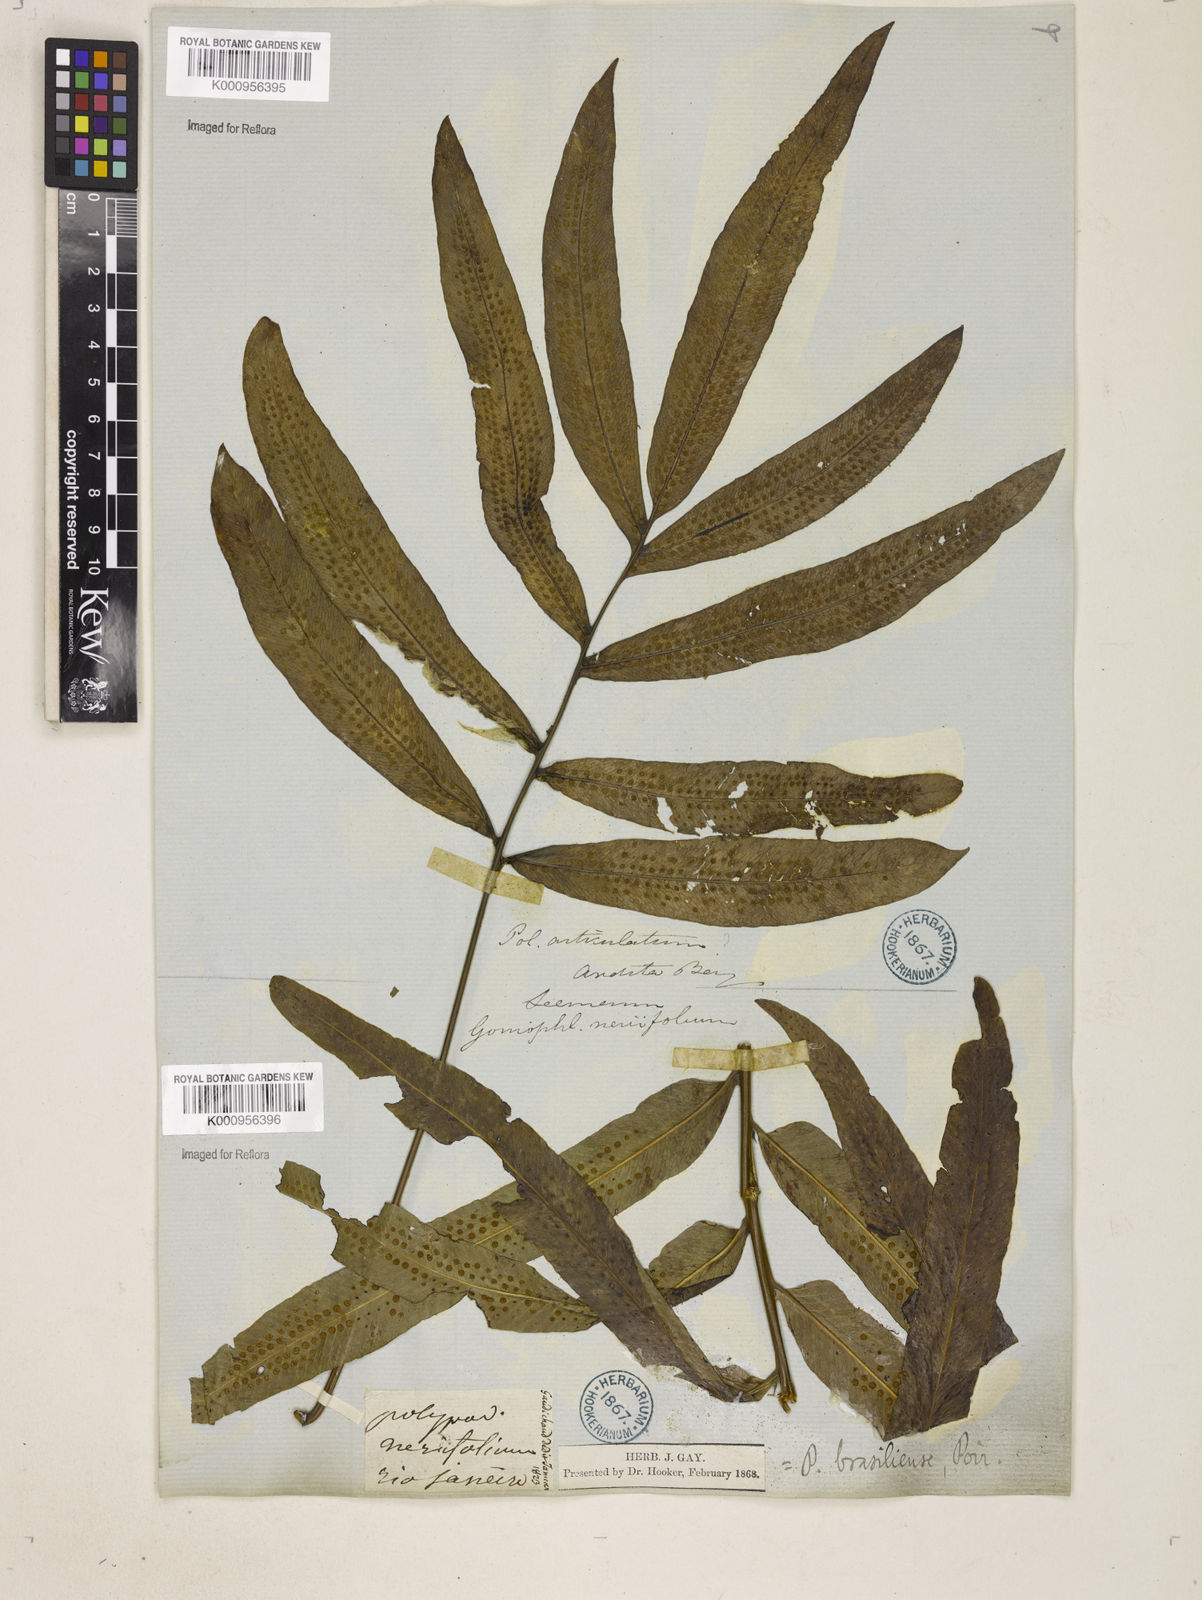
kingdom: Plantae
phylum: Tracheophyta
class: Polypodiopsida
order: Polypodiales
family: Polypodiaceae
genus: Serpocaulon
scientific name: Serpocaulon triseriale
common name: Angle-vein fern
